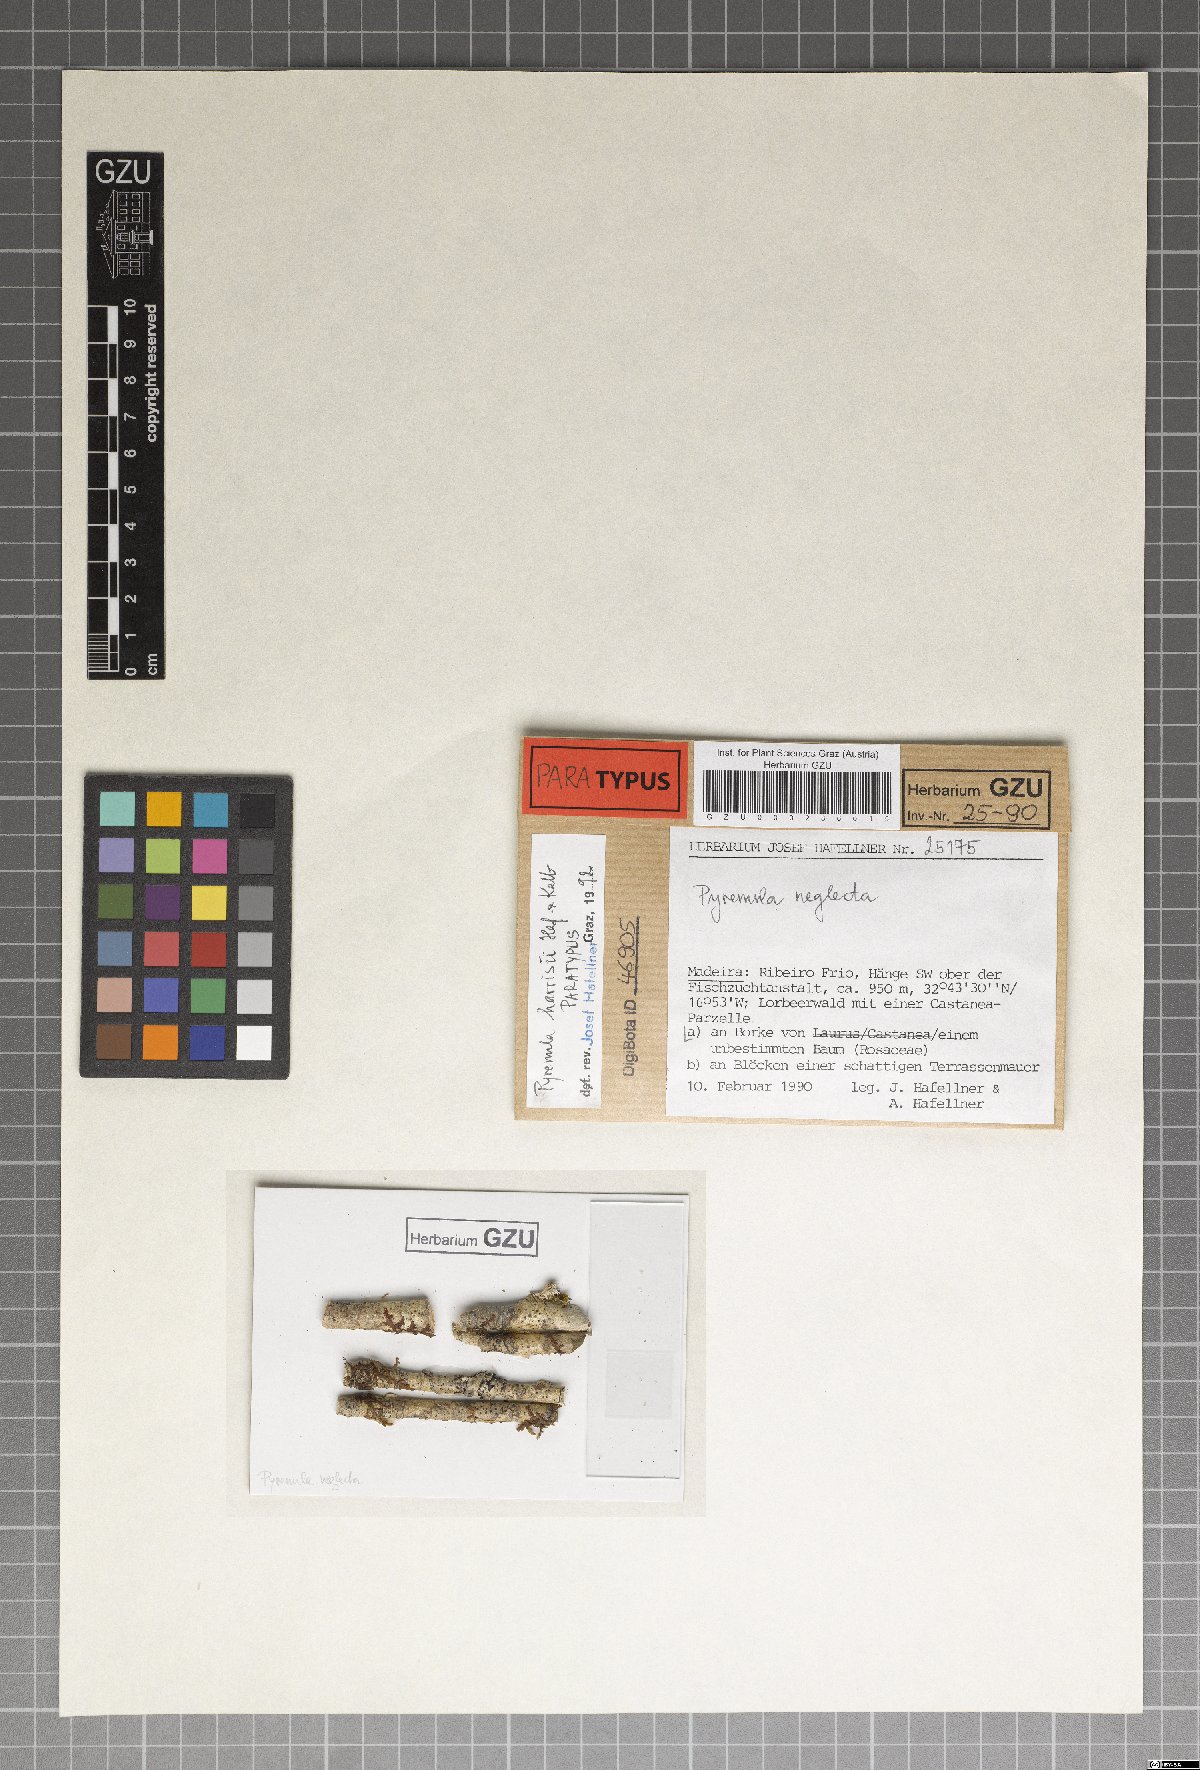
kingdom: Fungi
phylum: Ascomycota
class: Eurotiomycetes
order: Pyrenulales
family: Pyrenulaceae
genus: Pyrenula
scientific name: Pyrenula occidentalis
